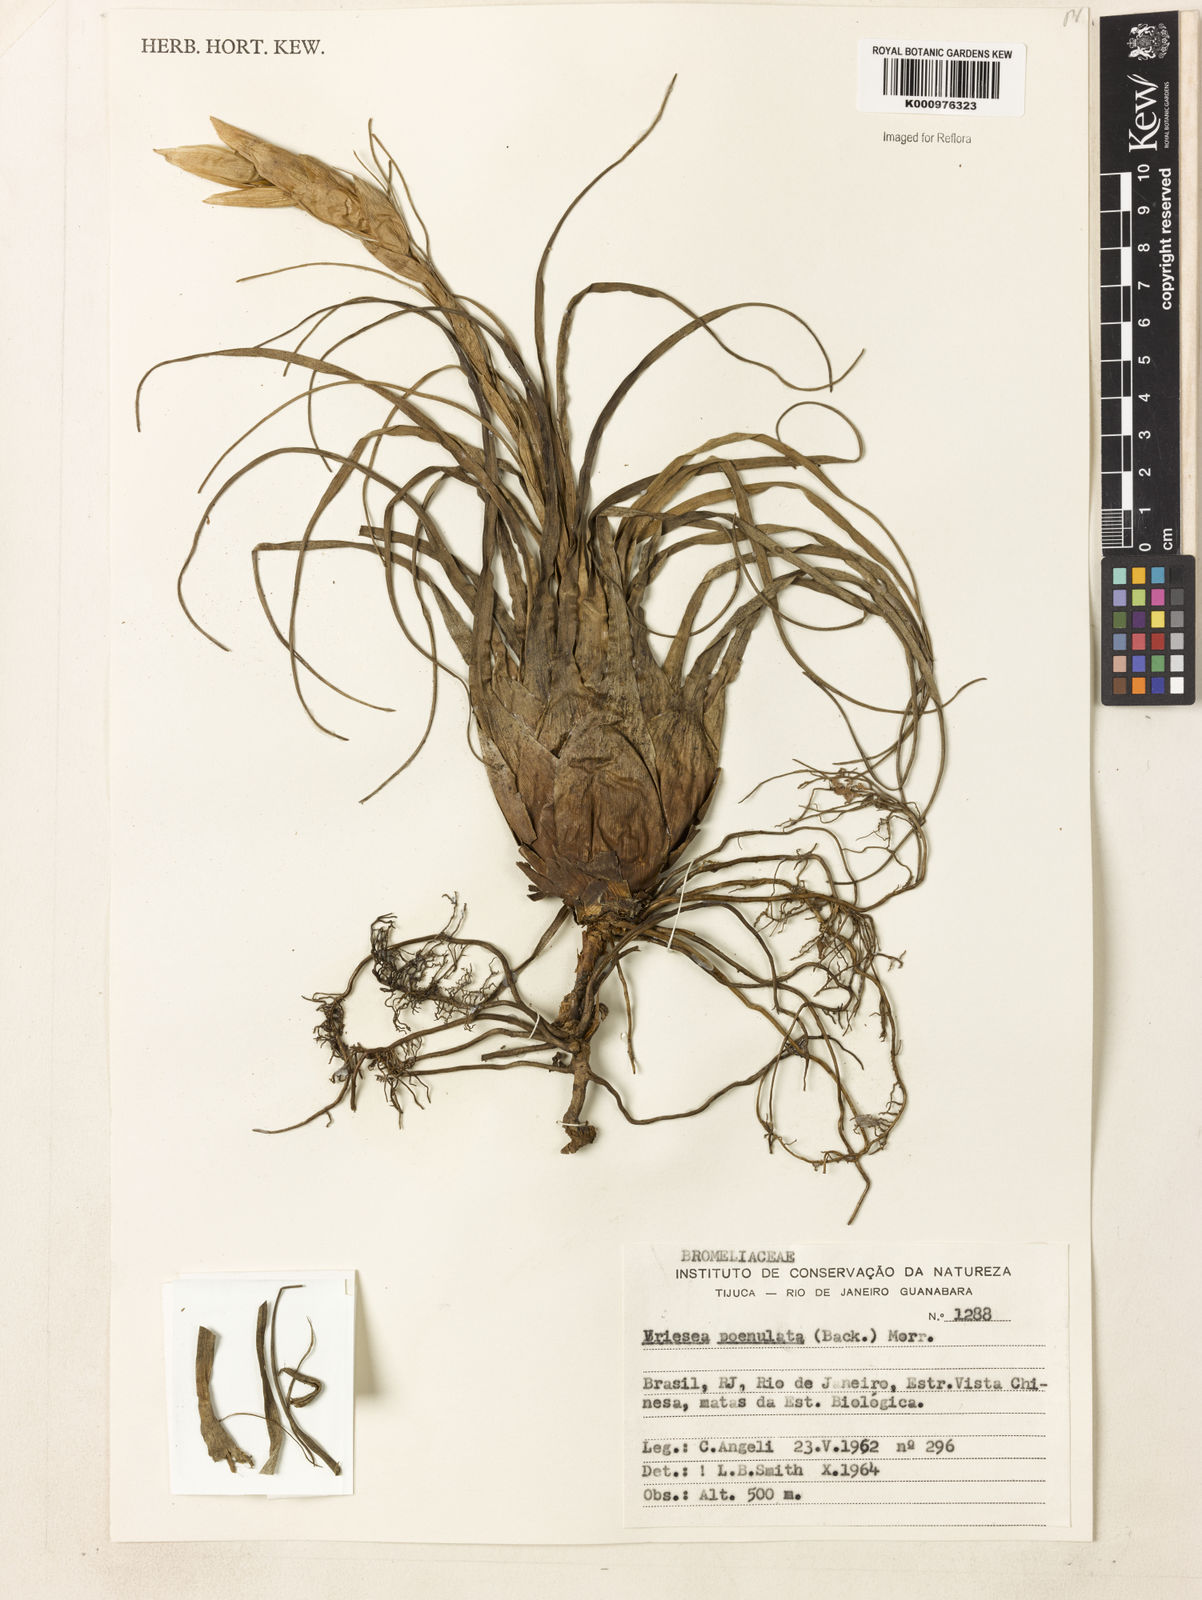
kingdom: Plantae
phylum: Tracheophyta
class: Liliopsida
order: Poales
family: Bromeliaceae
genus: Vriesea
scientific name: Vriesea poenulata
